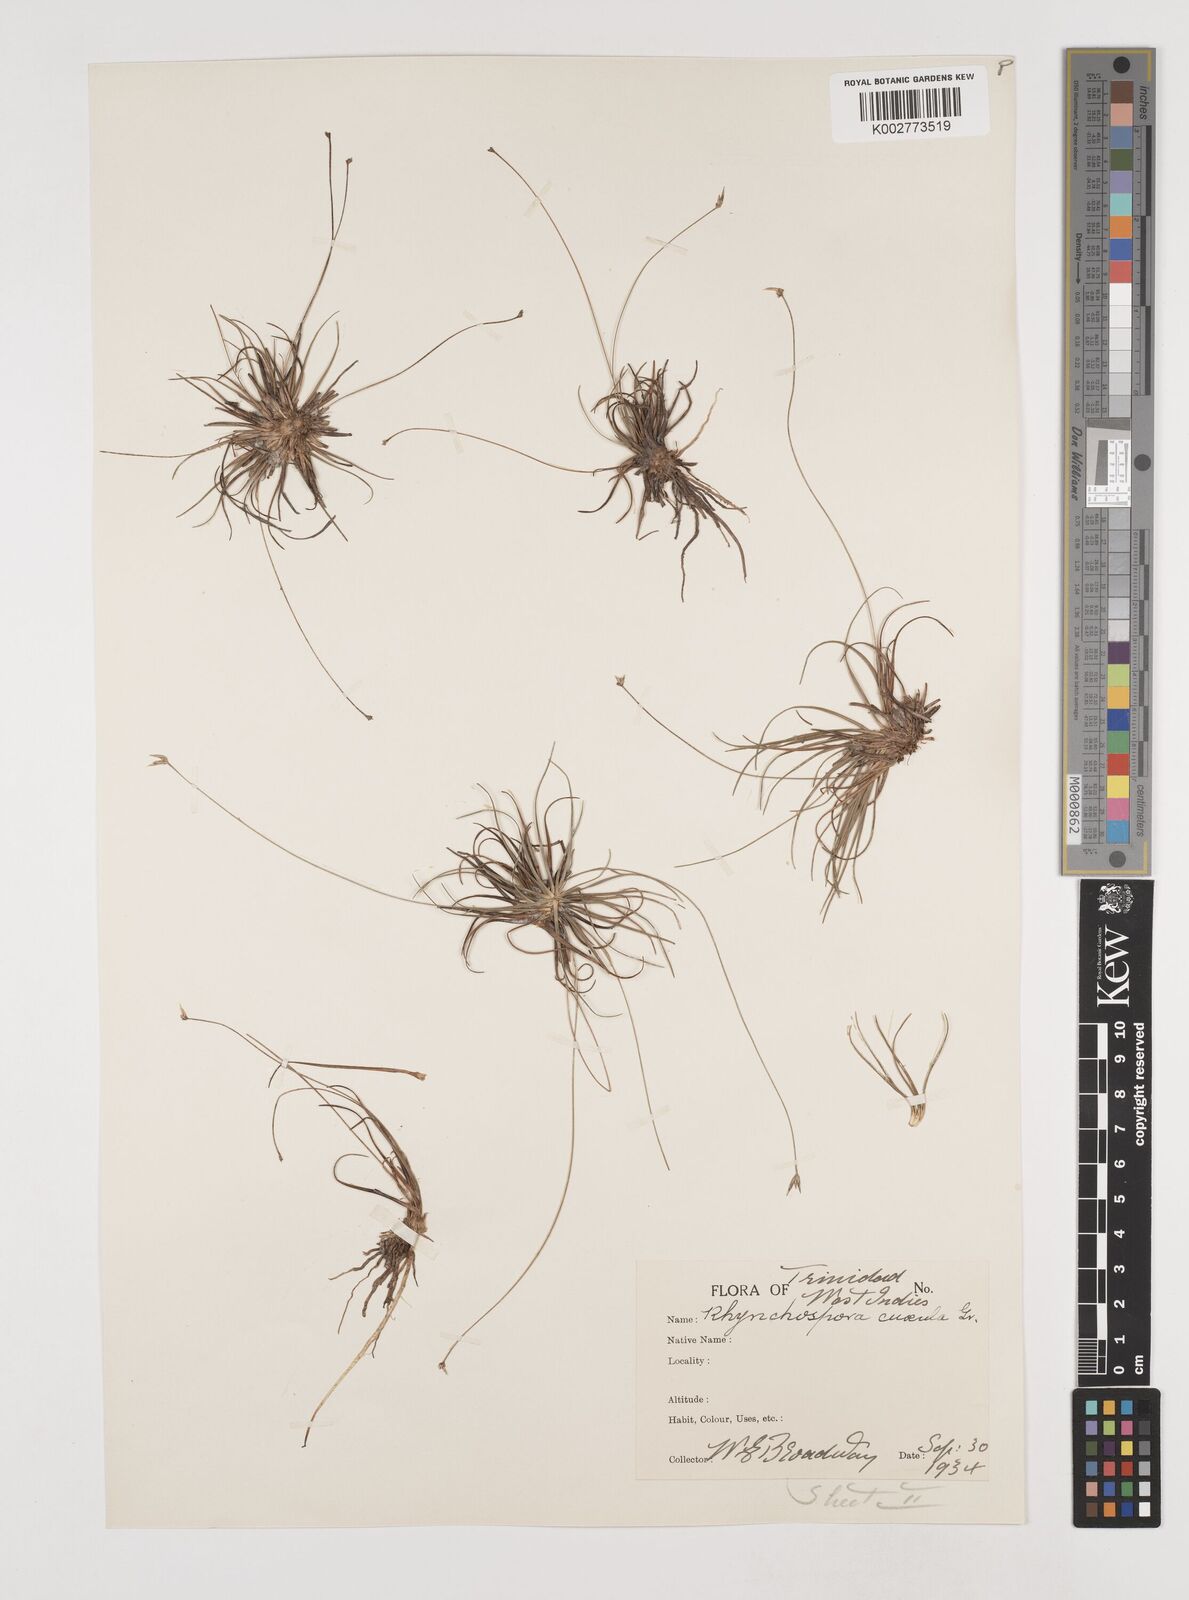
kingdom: Plantae
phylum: Tracheophyta
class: Liliopsida
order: Poales
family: Cyperaceae
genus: Rhynchospora
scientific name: Rhynchospora tenuis
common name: Quill beaksedge
